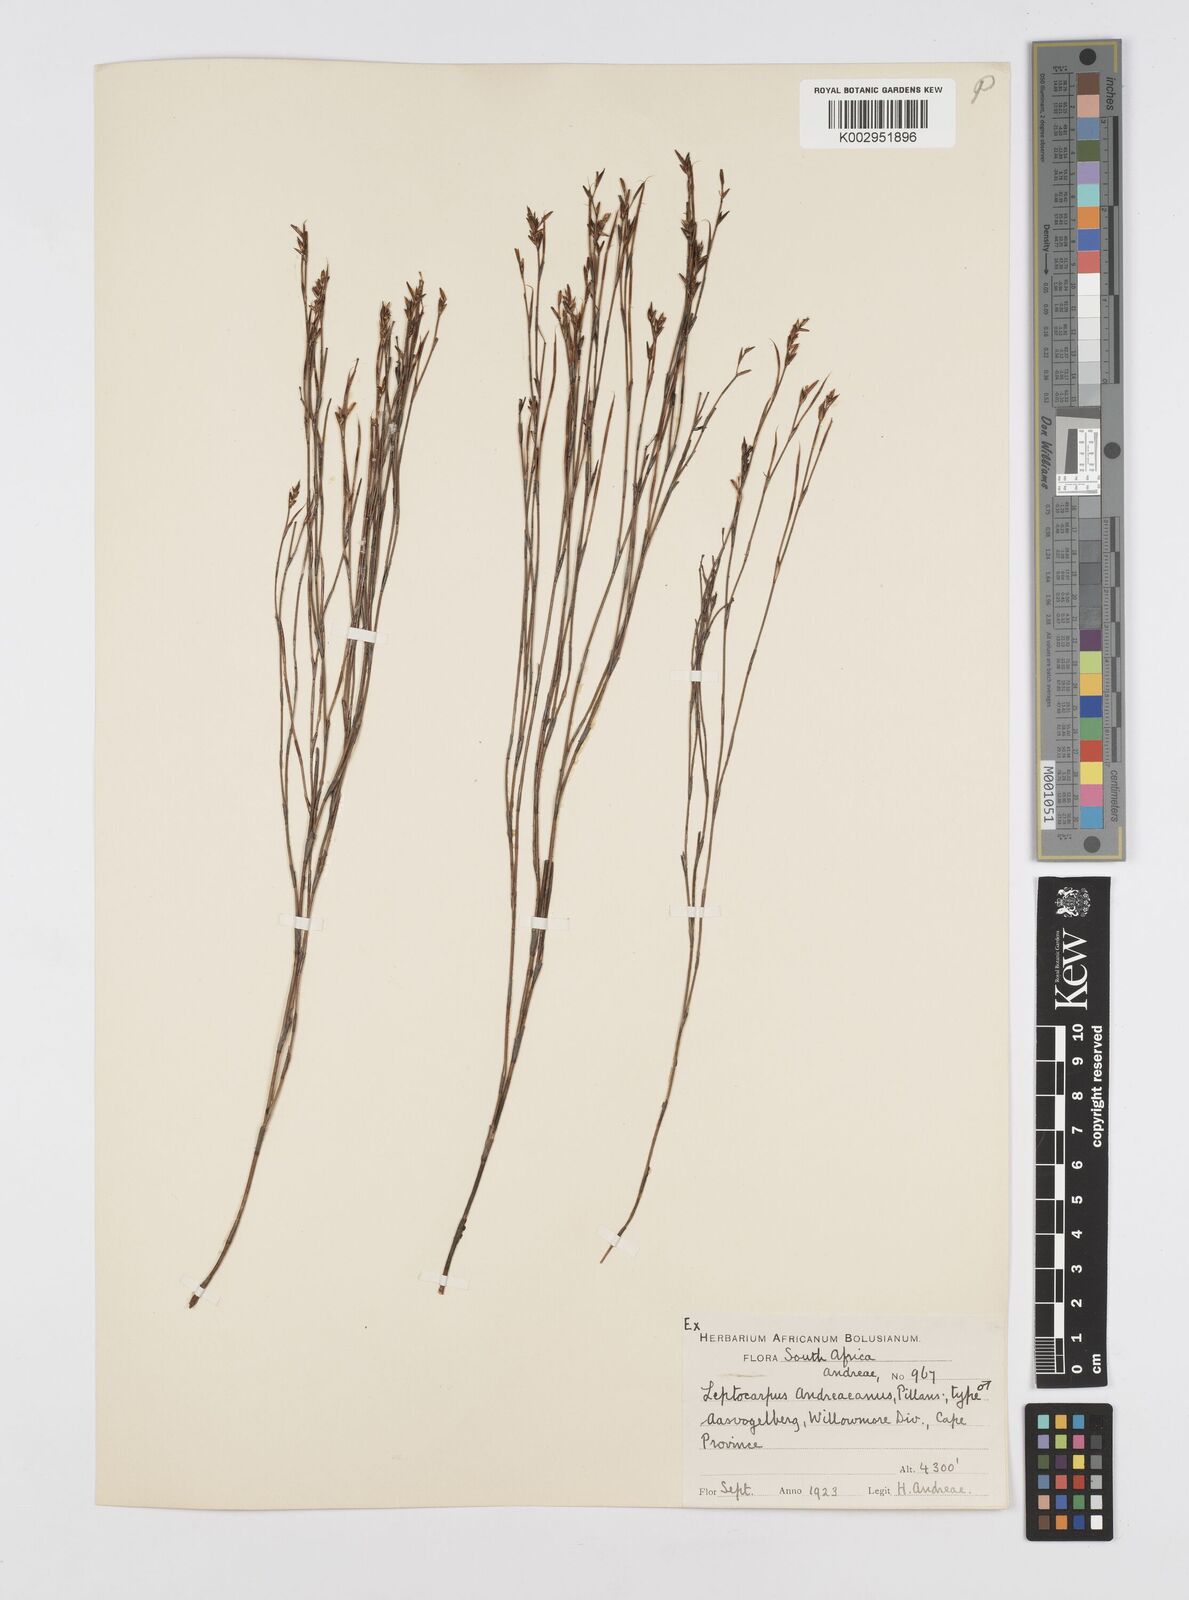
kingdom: Plantae
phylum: Tracheophyta
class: Liliopsida
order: Poales
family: Restionaceae
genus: Restio
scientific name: Restio andreaeanus
